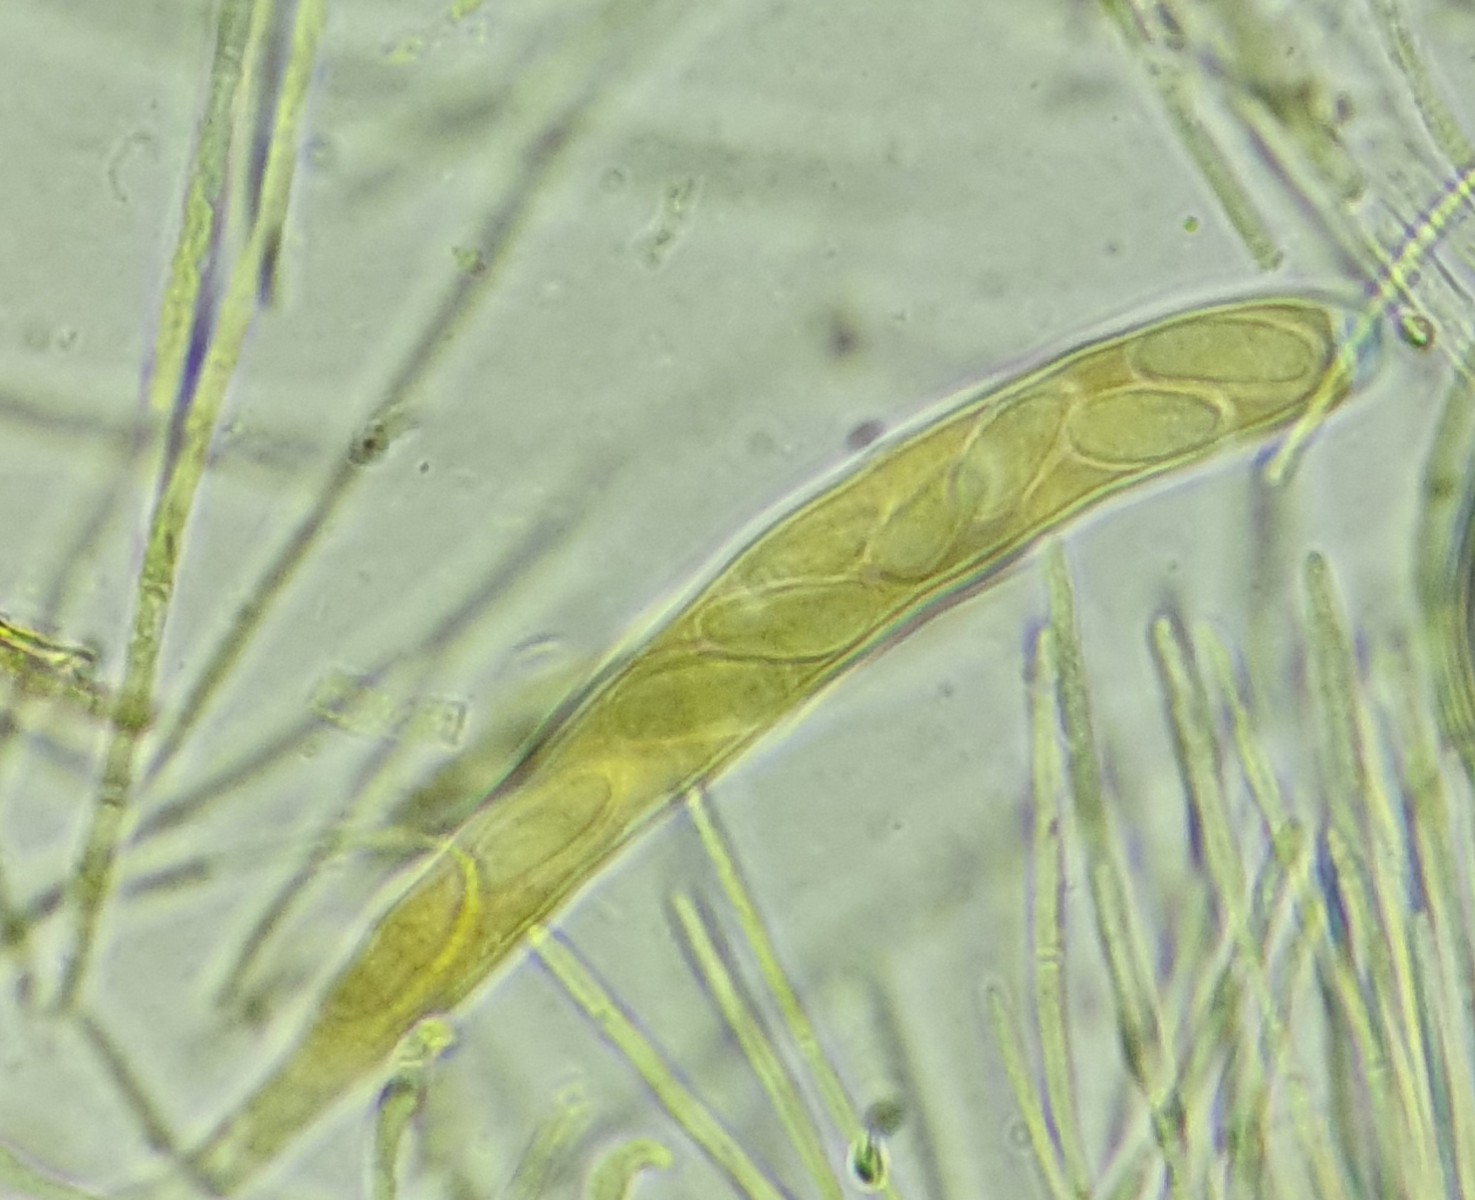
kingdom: Fungi
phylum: Ascomycota
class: Leotiomycetes
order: Helotiales
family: Rutstroemiaceae
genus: Rutstroemia
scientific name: Rutstroemia
